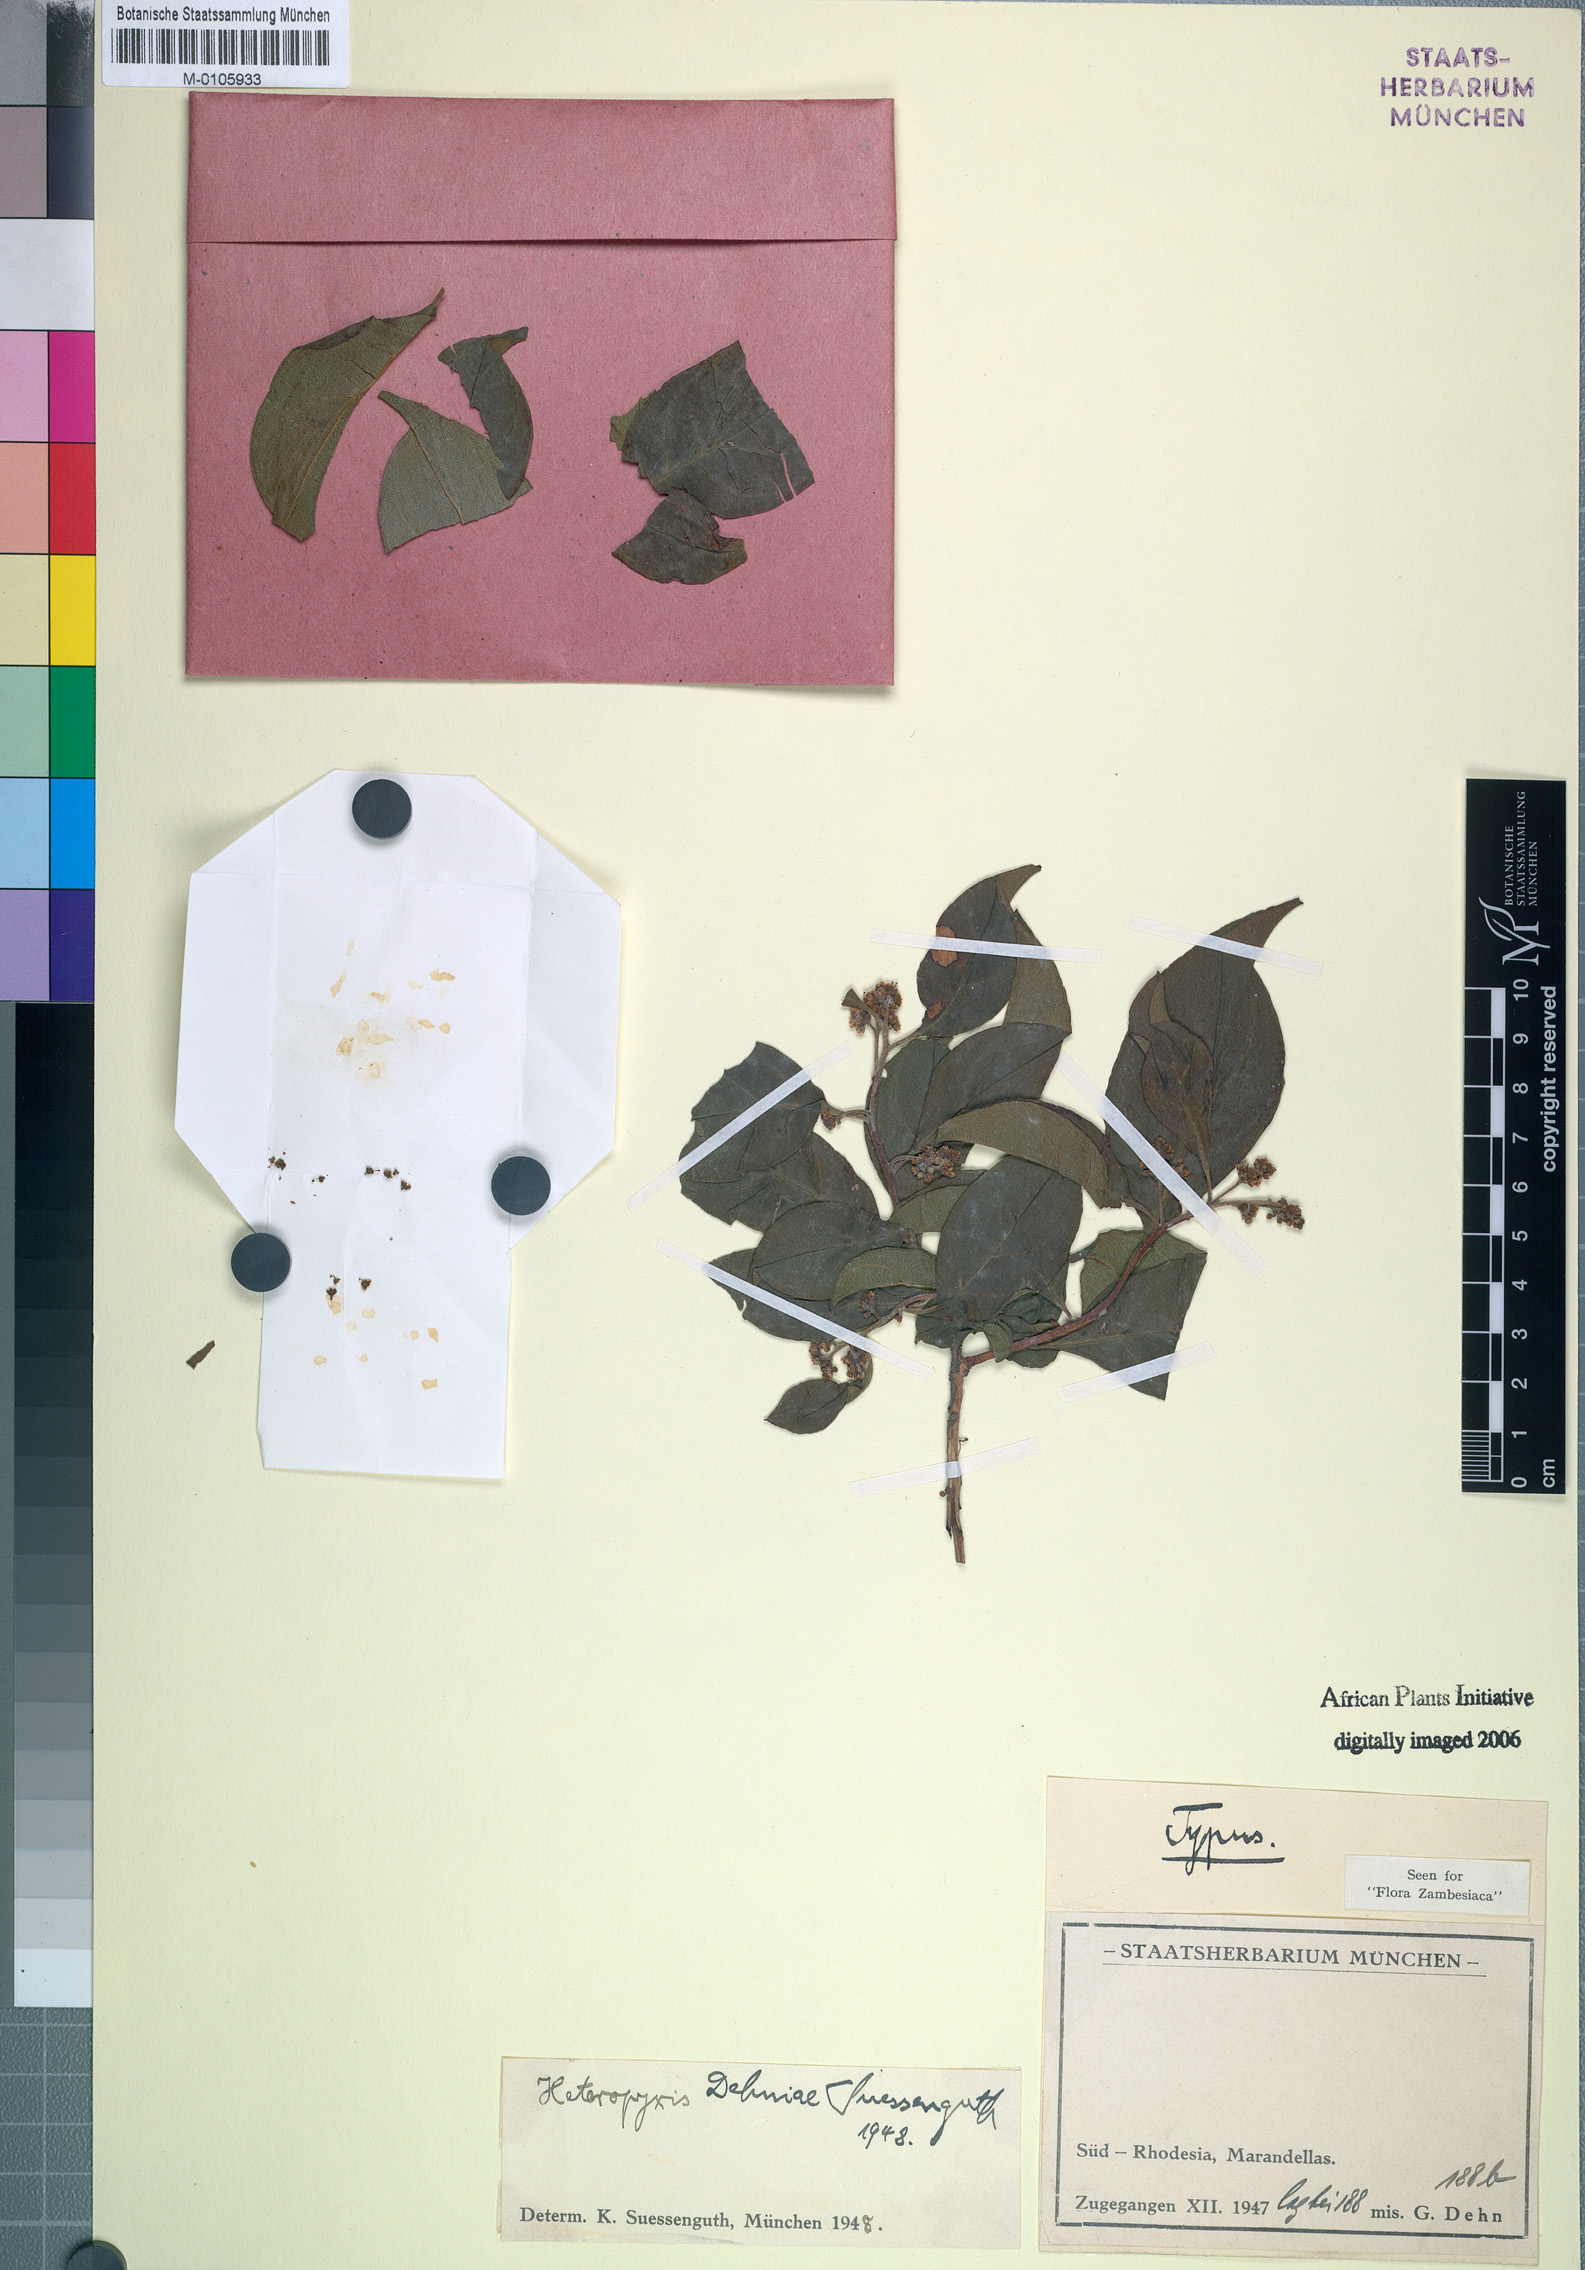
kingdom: Plantae
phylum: Tracheophyta
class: Magnoliopsida
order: Myrtales
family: Myrtaceae
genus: Heteropyxis
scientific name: Heteropyxis dehniae
